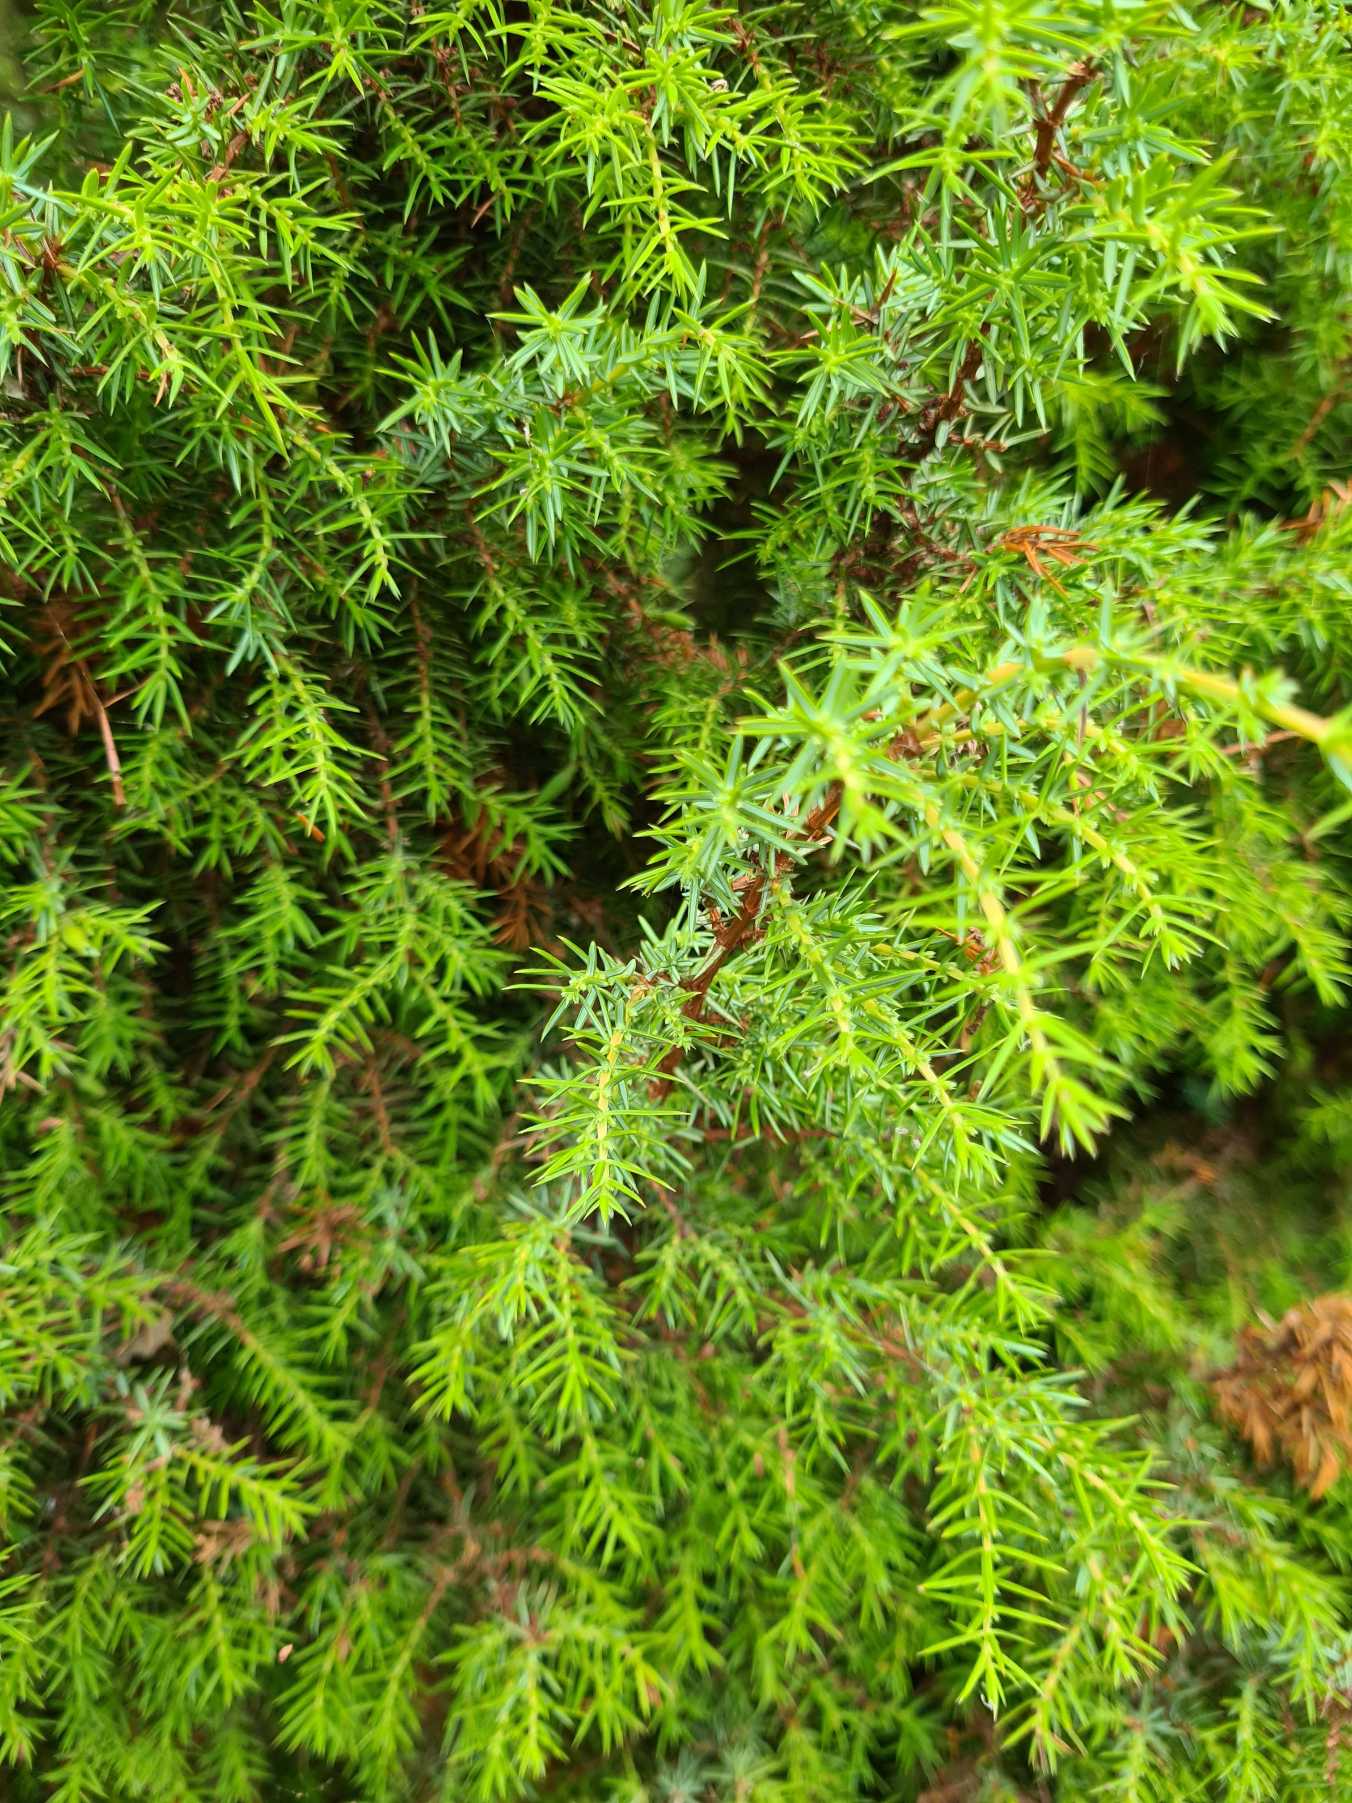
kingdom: Plantae
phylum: Tracheophyta
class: Pinopsida
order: Pinales
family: Cupressaceae
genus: Juniperus
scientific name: Juniperus communis
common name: Almindelig ene
